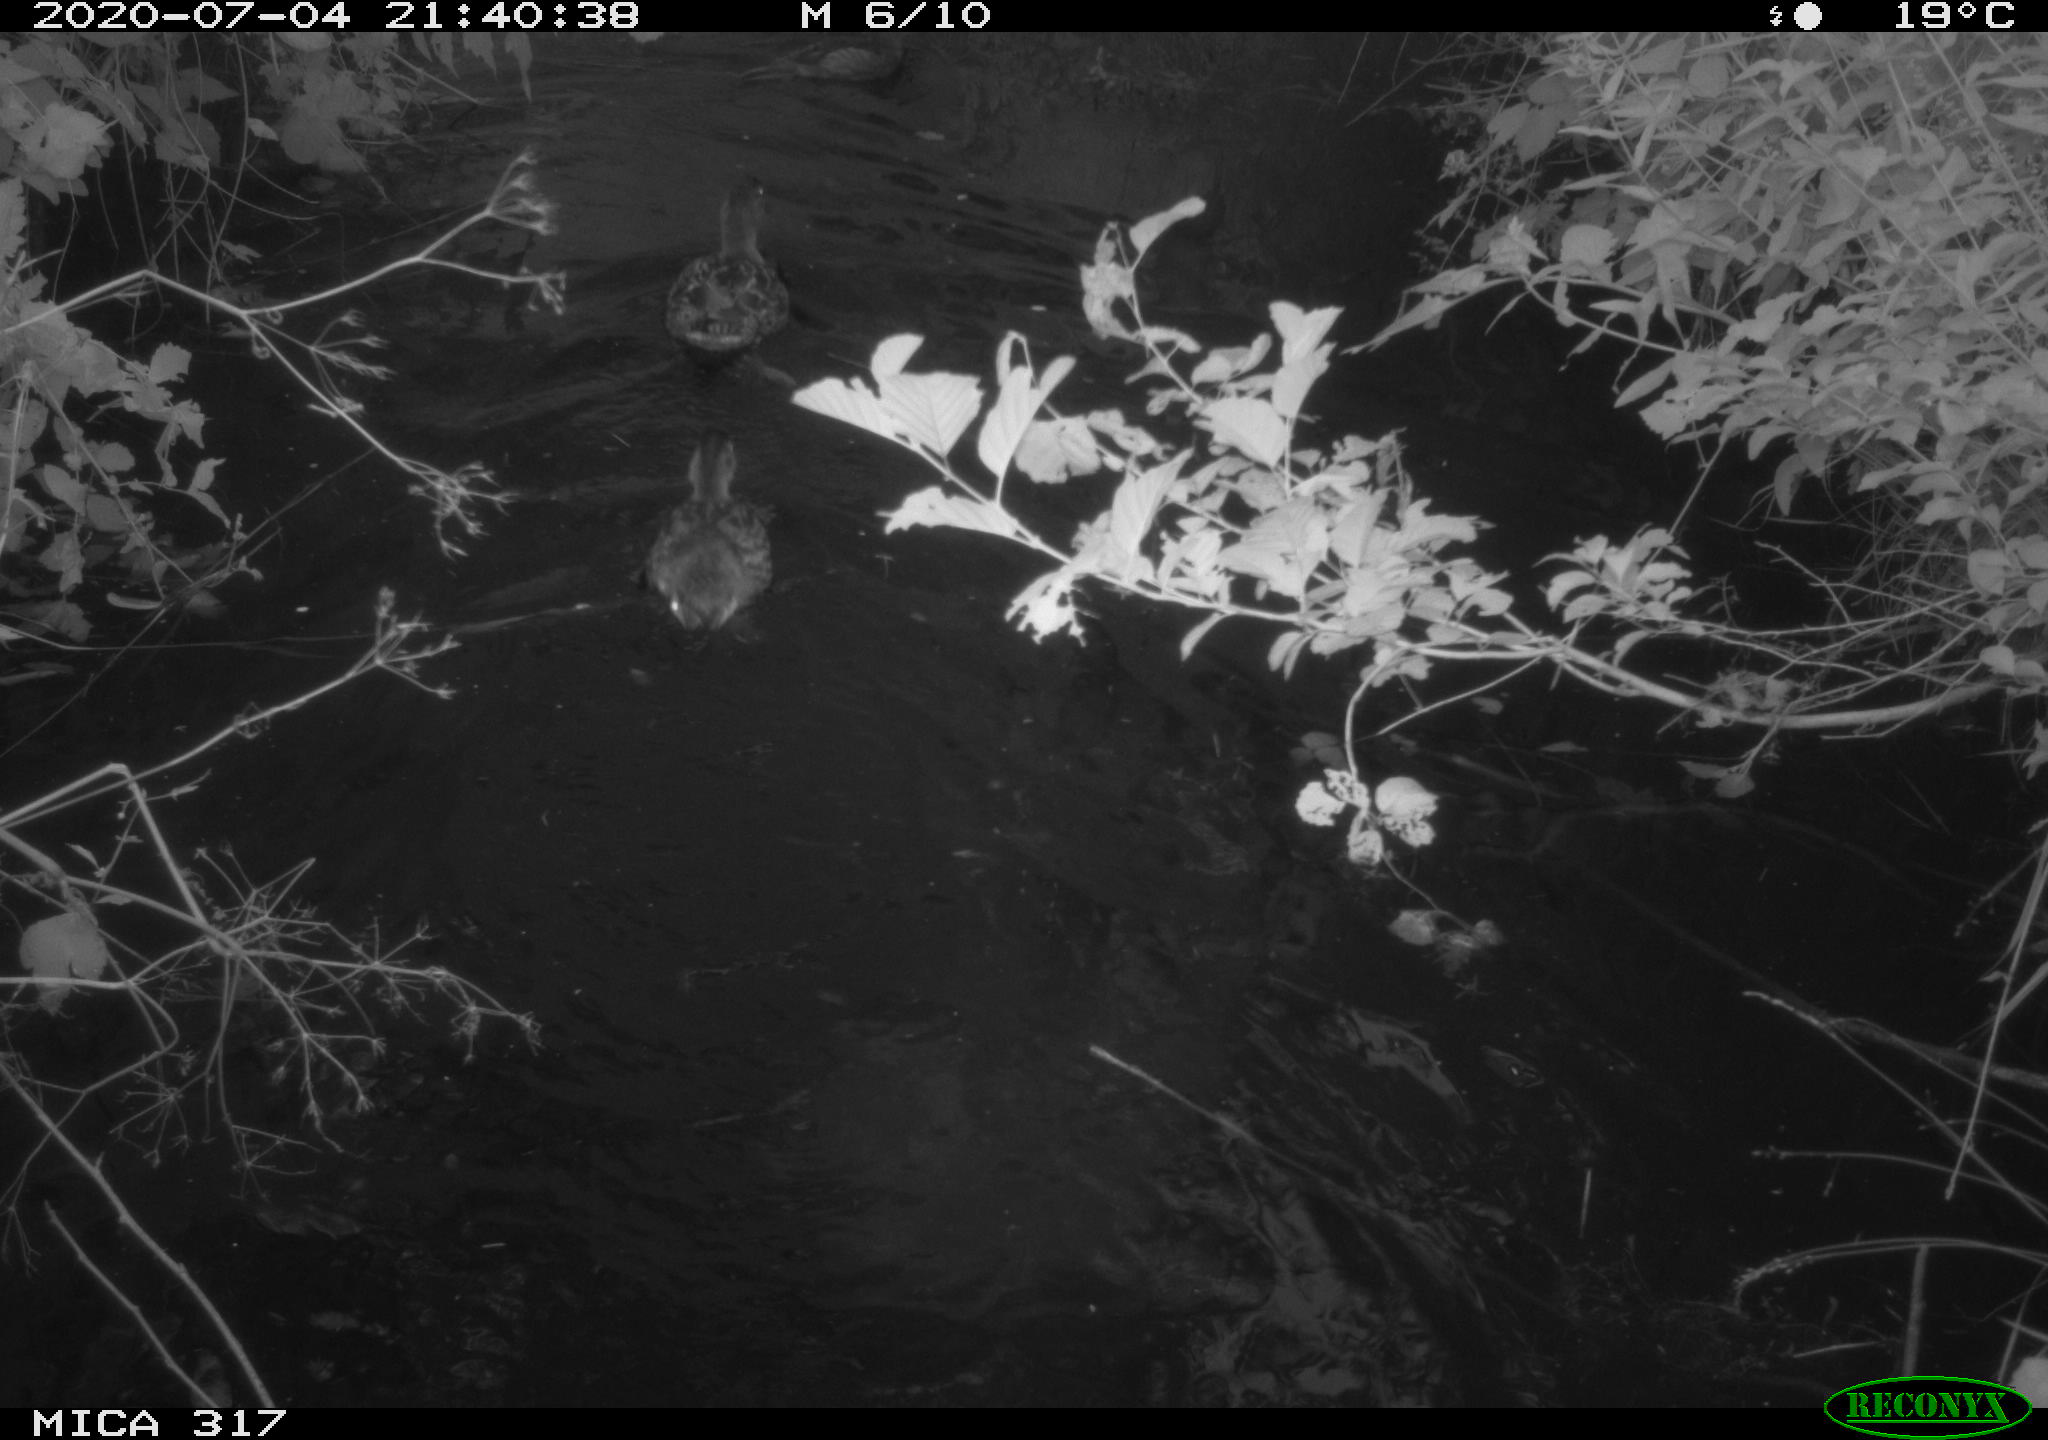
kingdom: Animalia
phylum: Chordata
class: Aves
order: Anseriformes
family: Anatidae
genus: Anas
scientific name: Anas platyrhynchos
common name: Mallard
